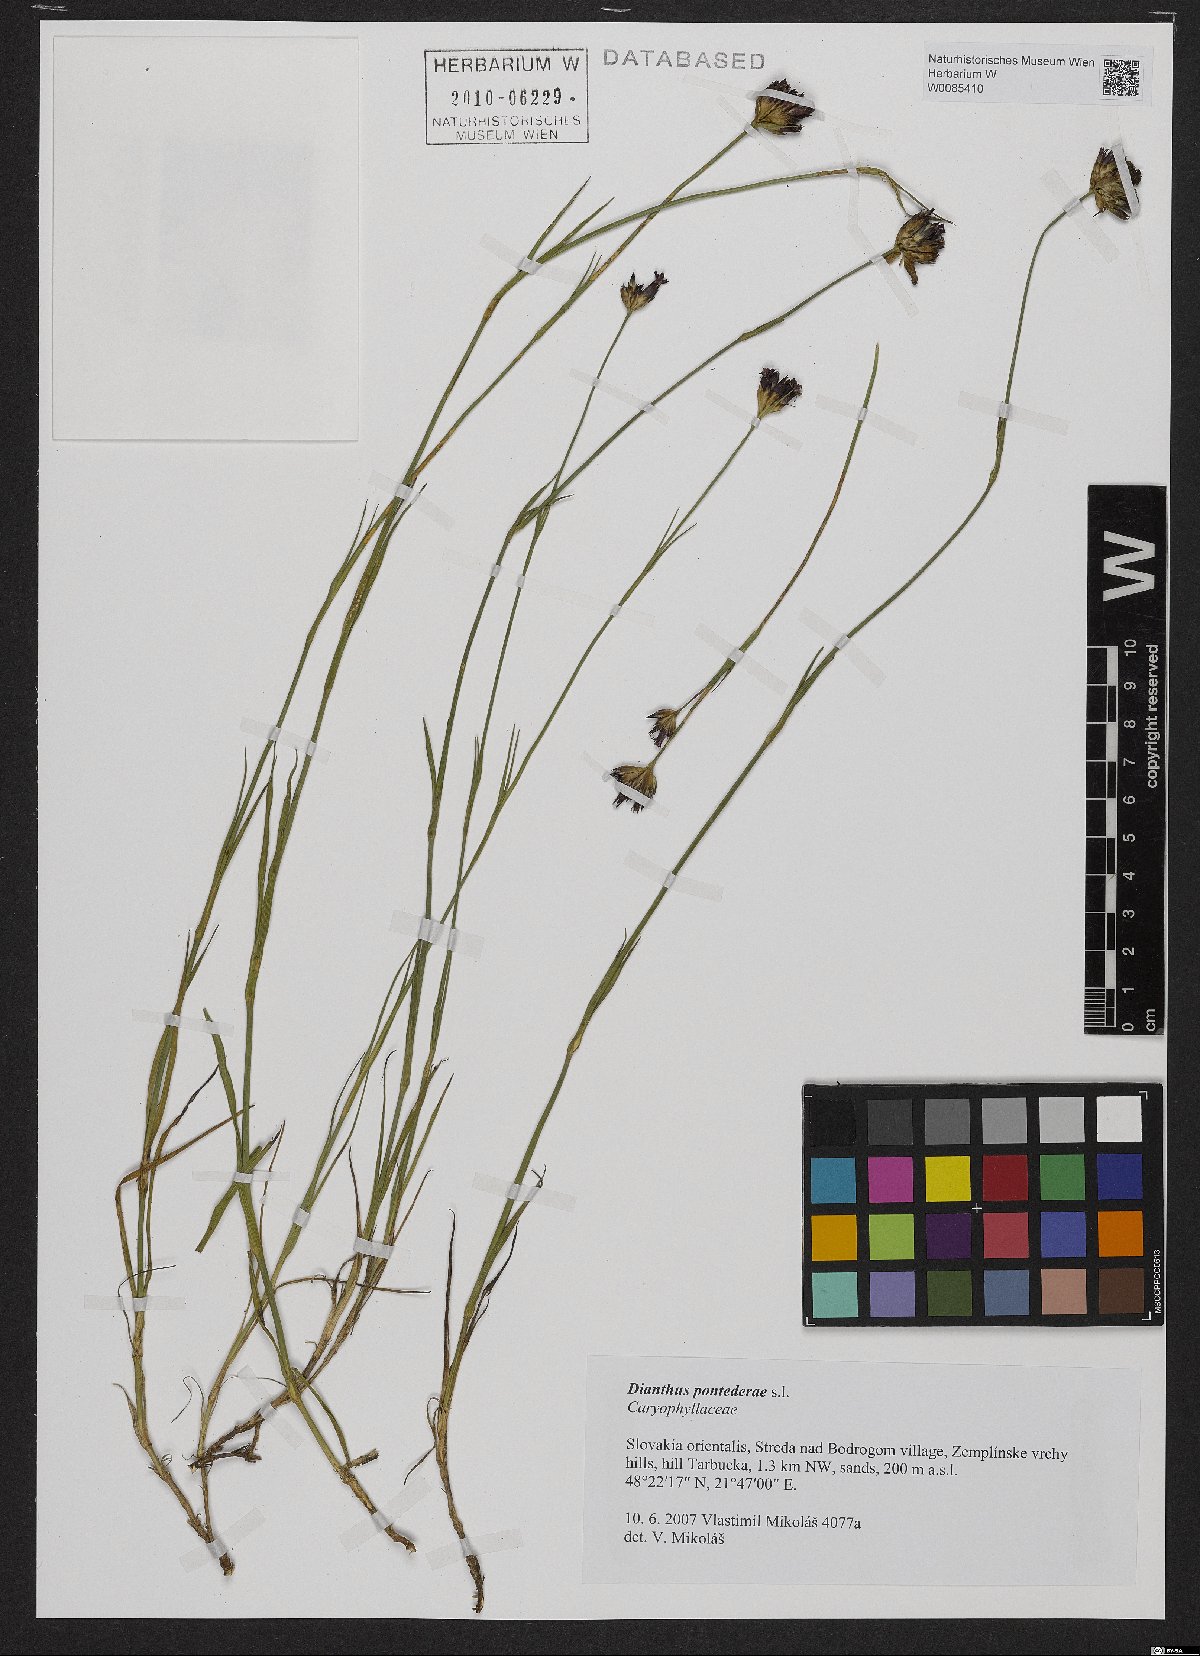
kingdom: Plantae
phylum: Tracheophyta
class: Magnoliopsida
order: Caryophyllales
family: Caryophyllaceae
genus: Dianthus
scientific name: Dianthus pontederae
